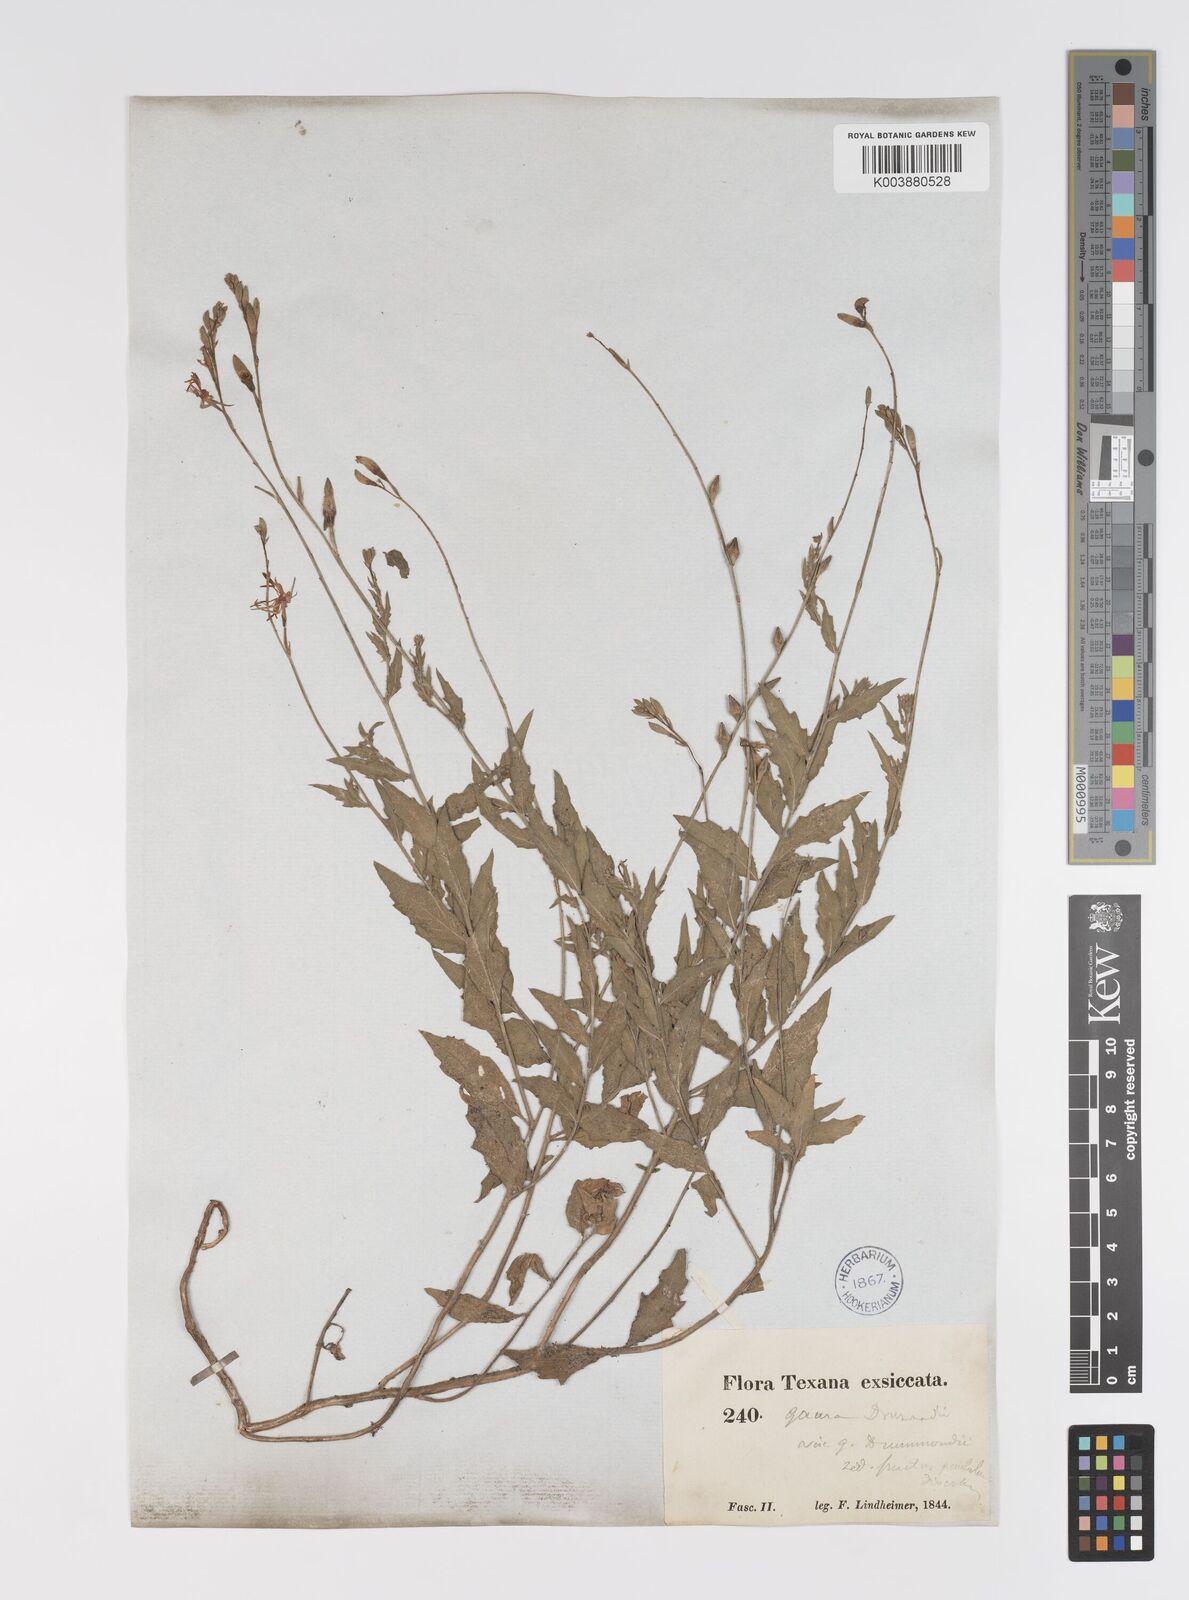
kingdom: Plantae
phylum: Tracheophyta
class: Magnoliopsida
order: Myrtales
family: Onagraceae
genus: Oenothera
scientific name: Oenothera hispida
